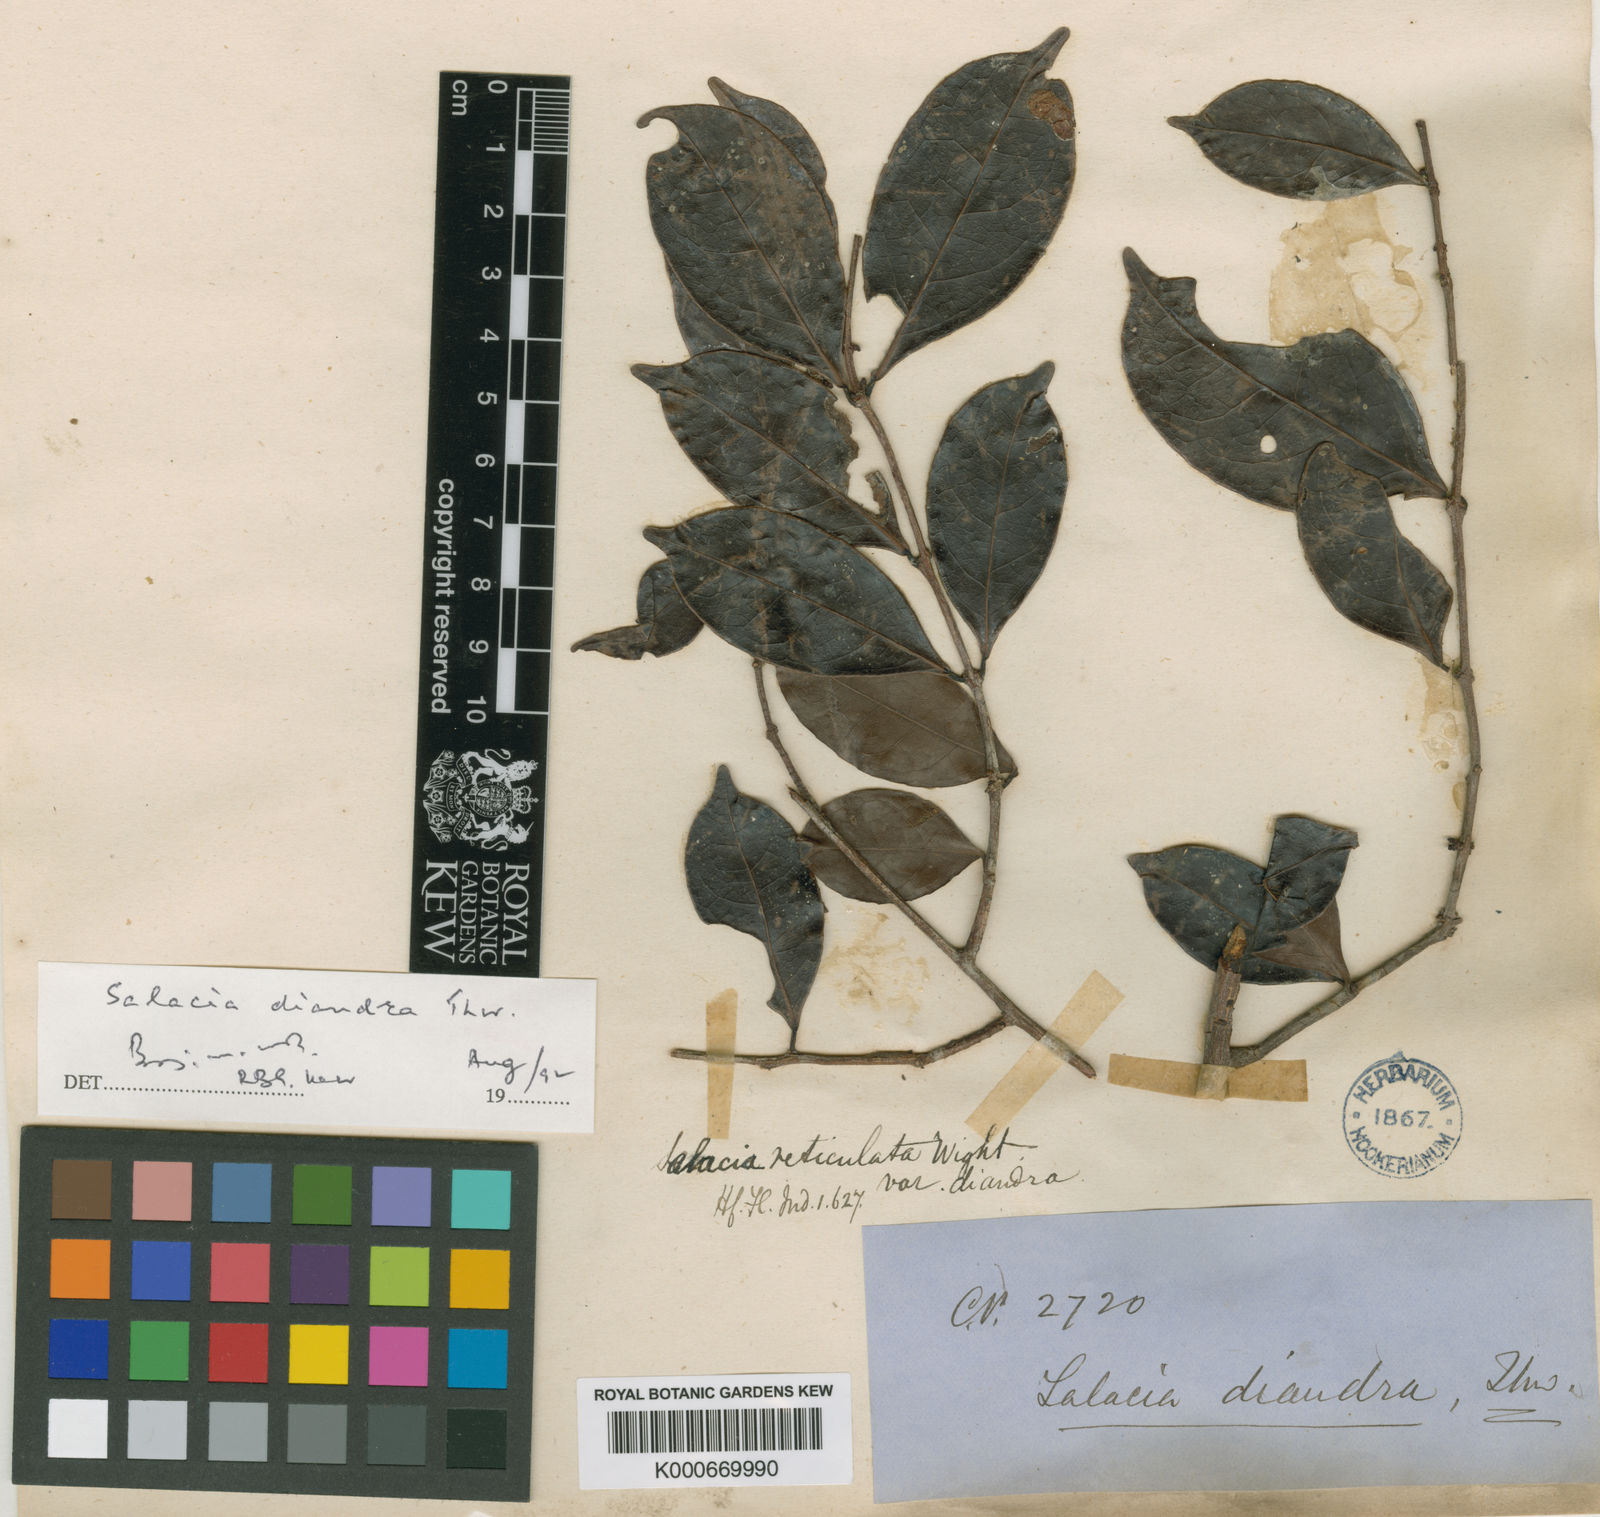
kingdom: Plantae
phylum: Tracheophyta
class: Magnoliopsida
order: Celastrales
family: Celastraceae
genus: Salacia
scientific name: Salacia reticulata
